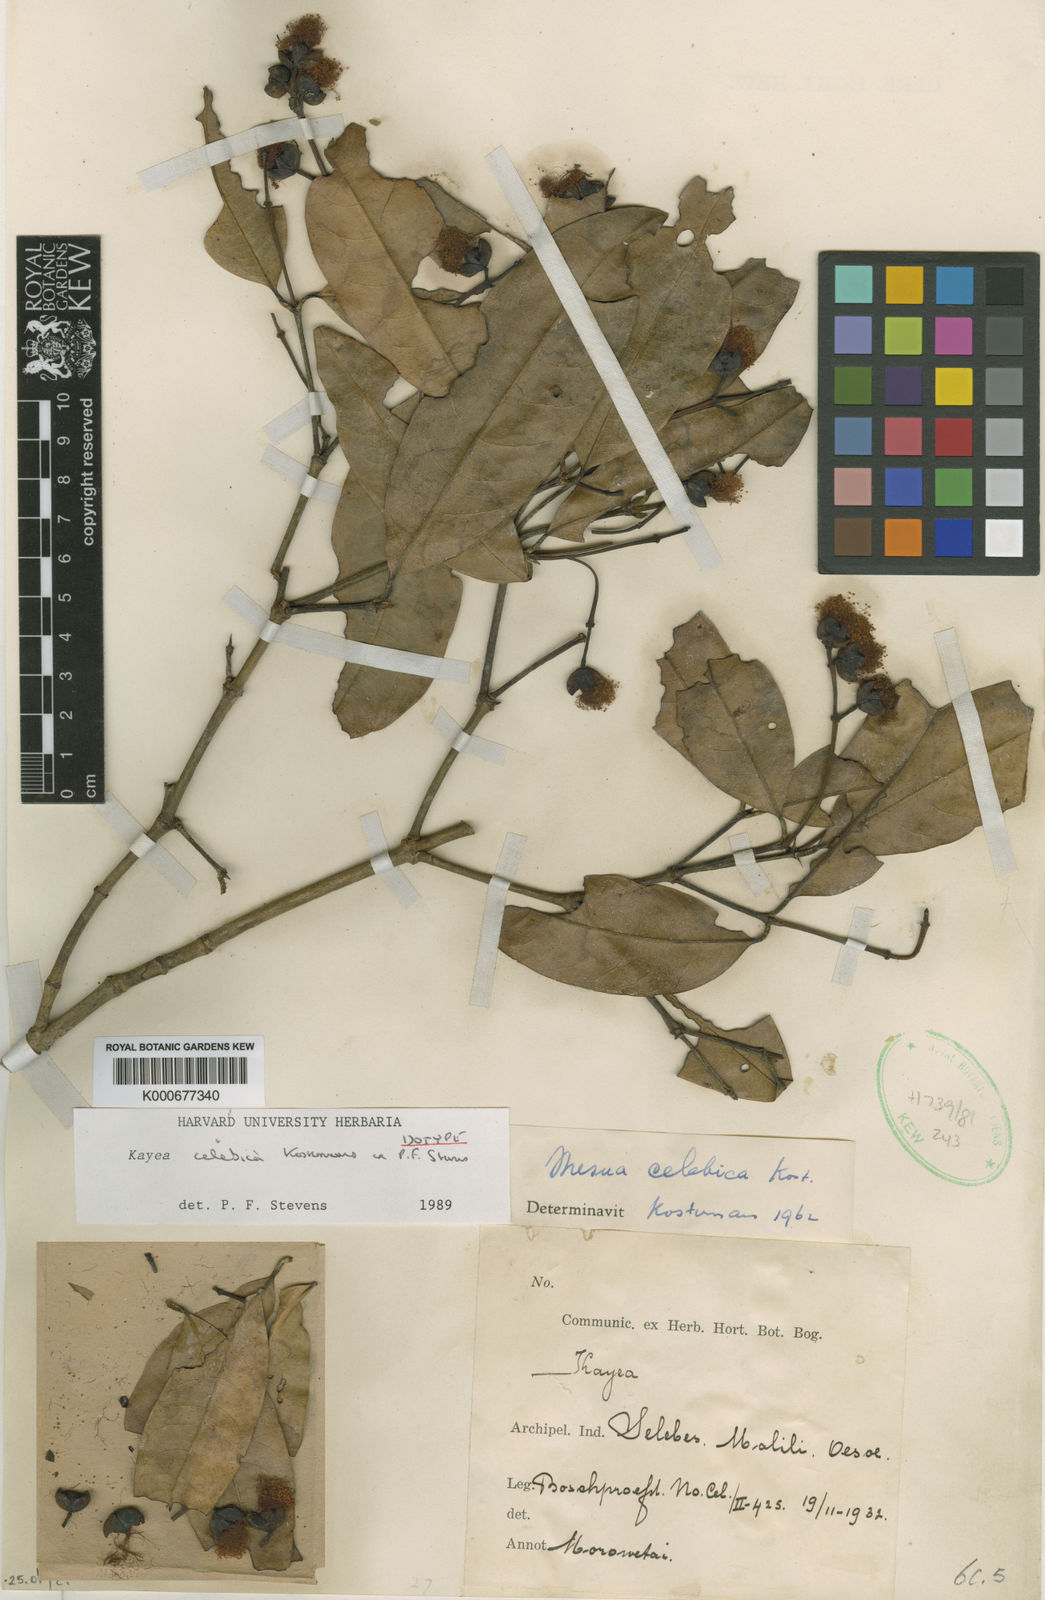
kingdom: Plantae
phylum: Tracheophyta
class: Magnoliopsida
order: Malpighiales
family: Calophyllaceae
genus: Kayea
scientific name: Kayea
